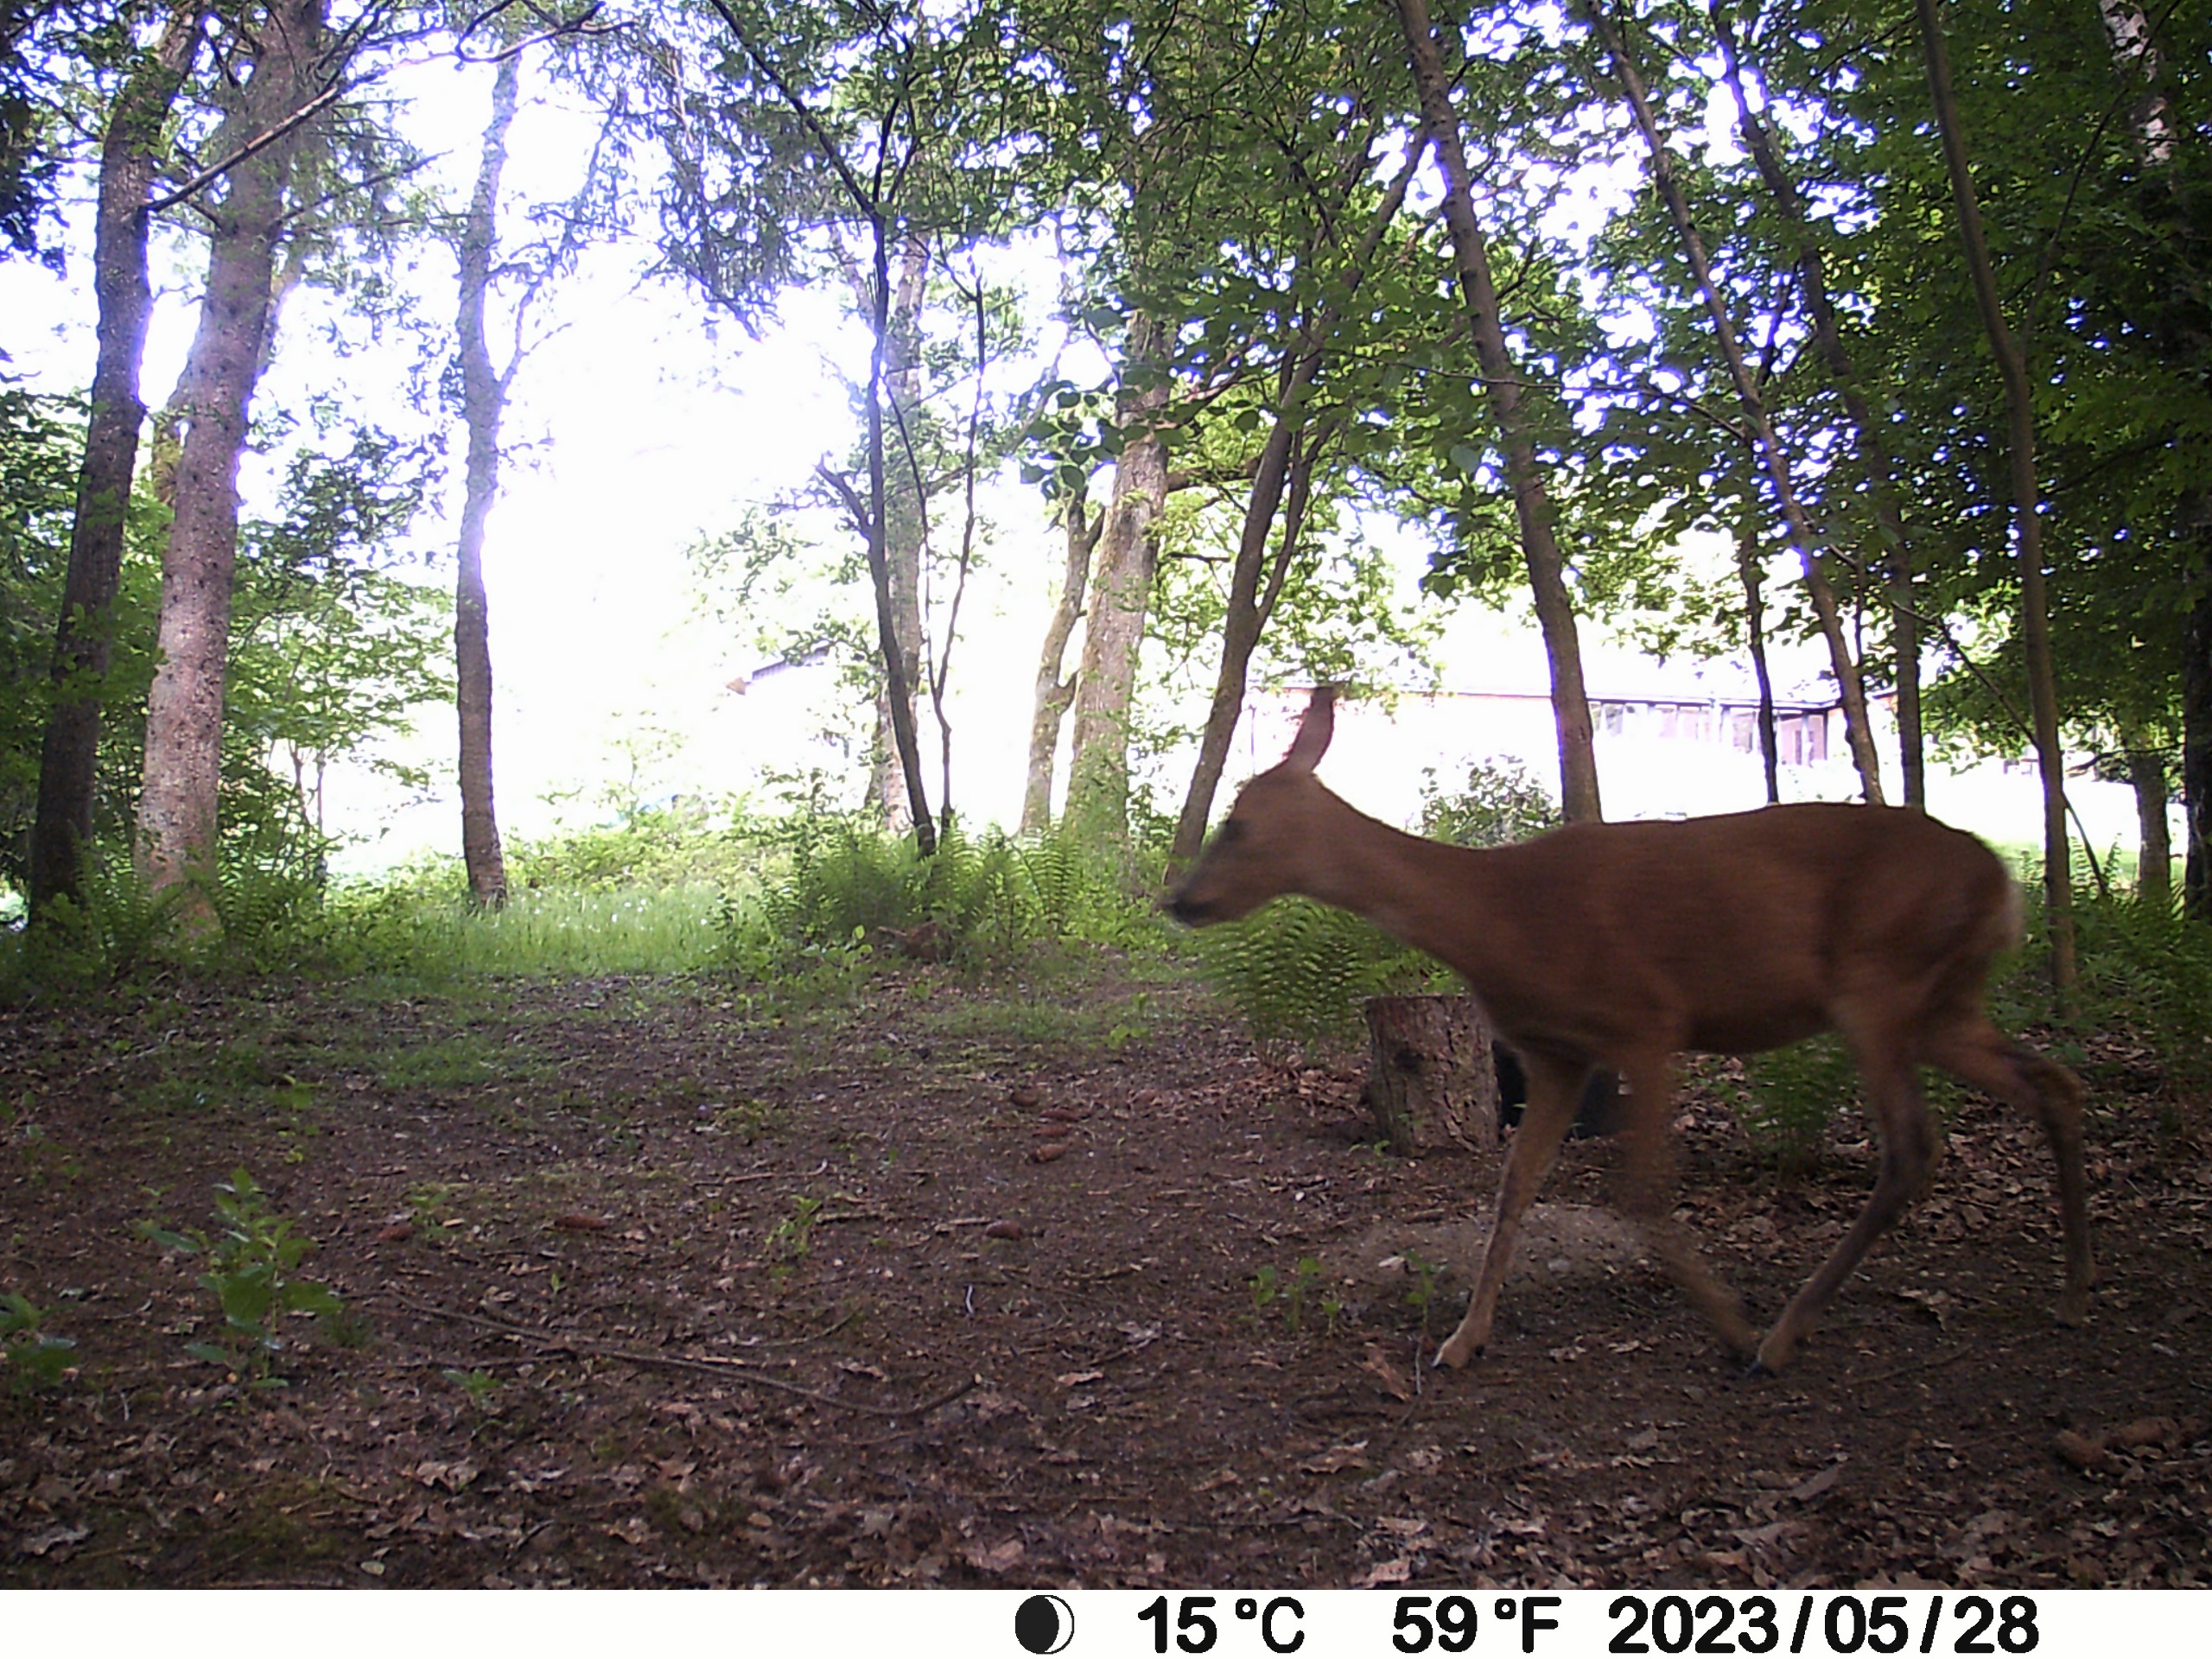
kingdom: Animalia
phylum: Chordata
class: Mammalia
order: Artiodactyla
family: Cervidae
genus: Capreolus
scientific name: Capreolus capreolus
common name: Rådyr
